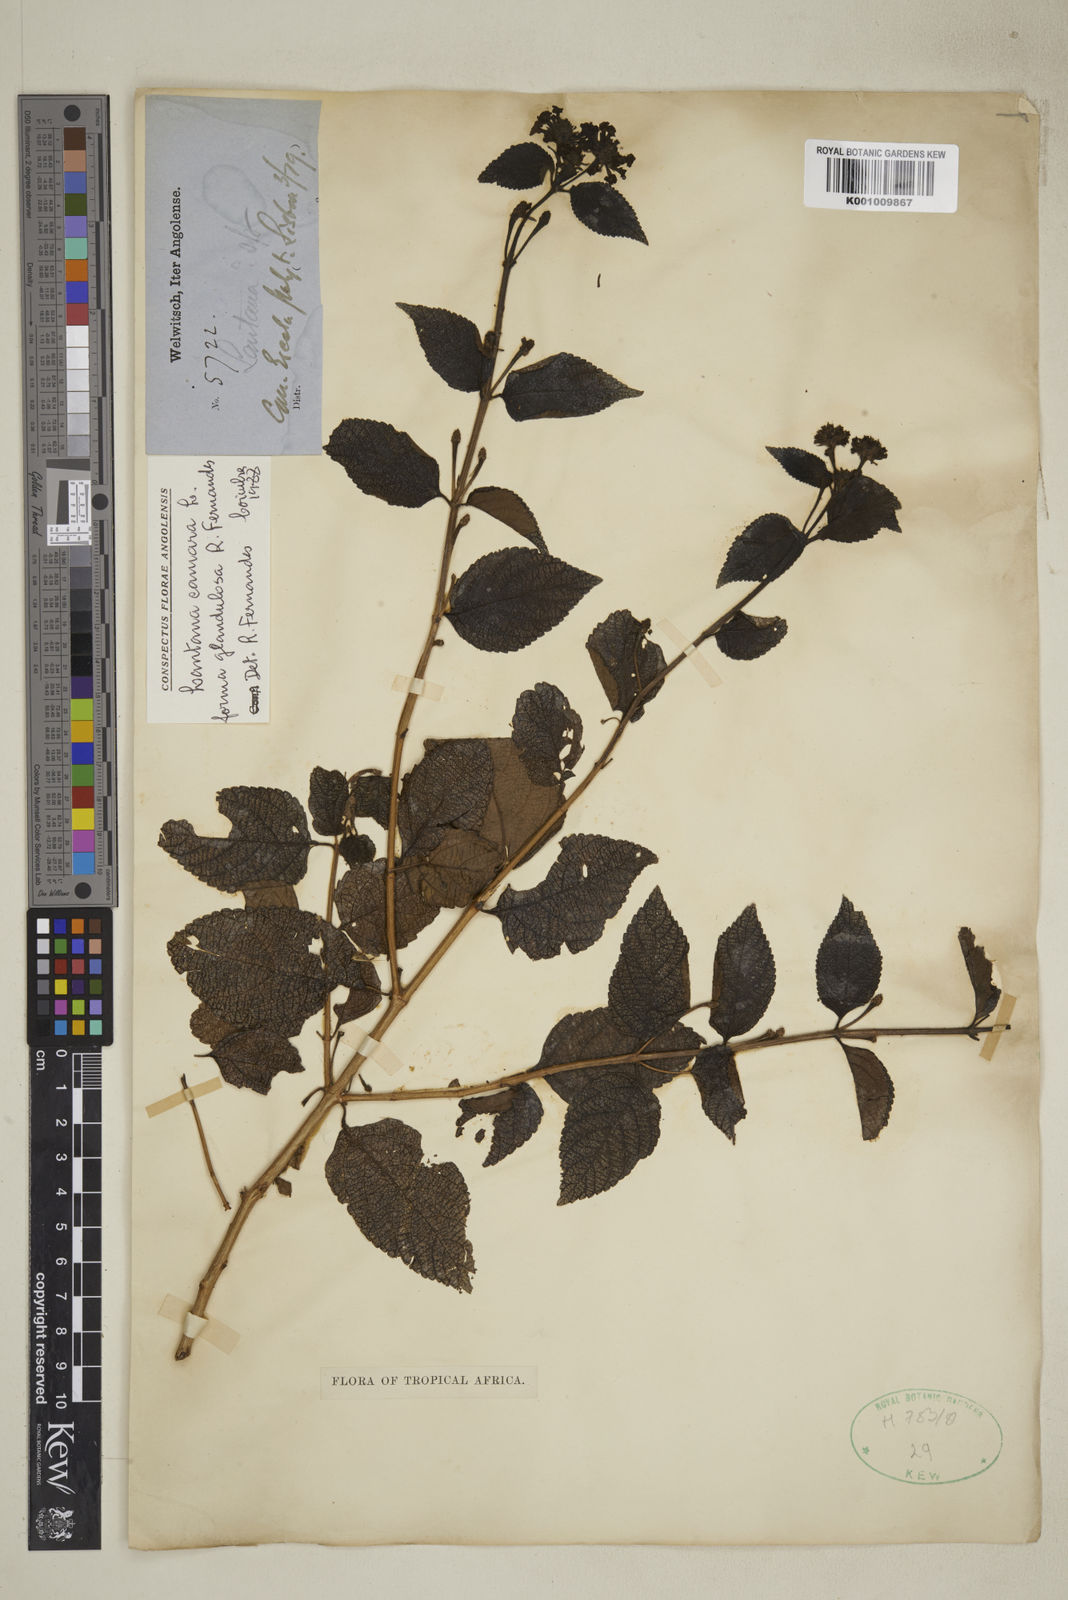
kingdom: Plantae
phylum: Tracheophyta
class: Magnoliopsida
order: Lamiales
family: Verbenaceae
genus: Lantana
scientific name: Lantana camara
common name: Lantana
